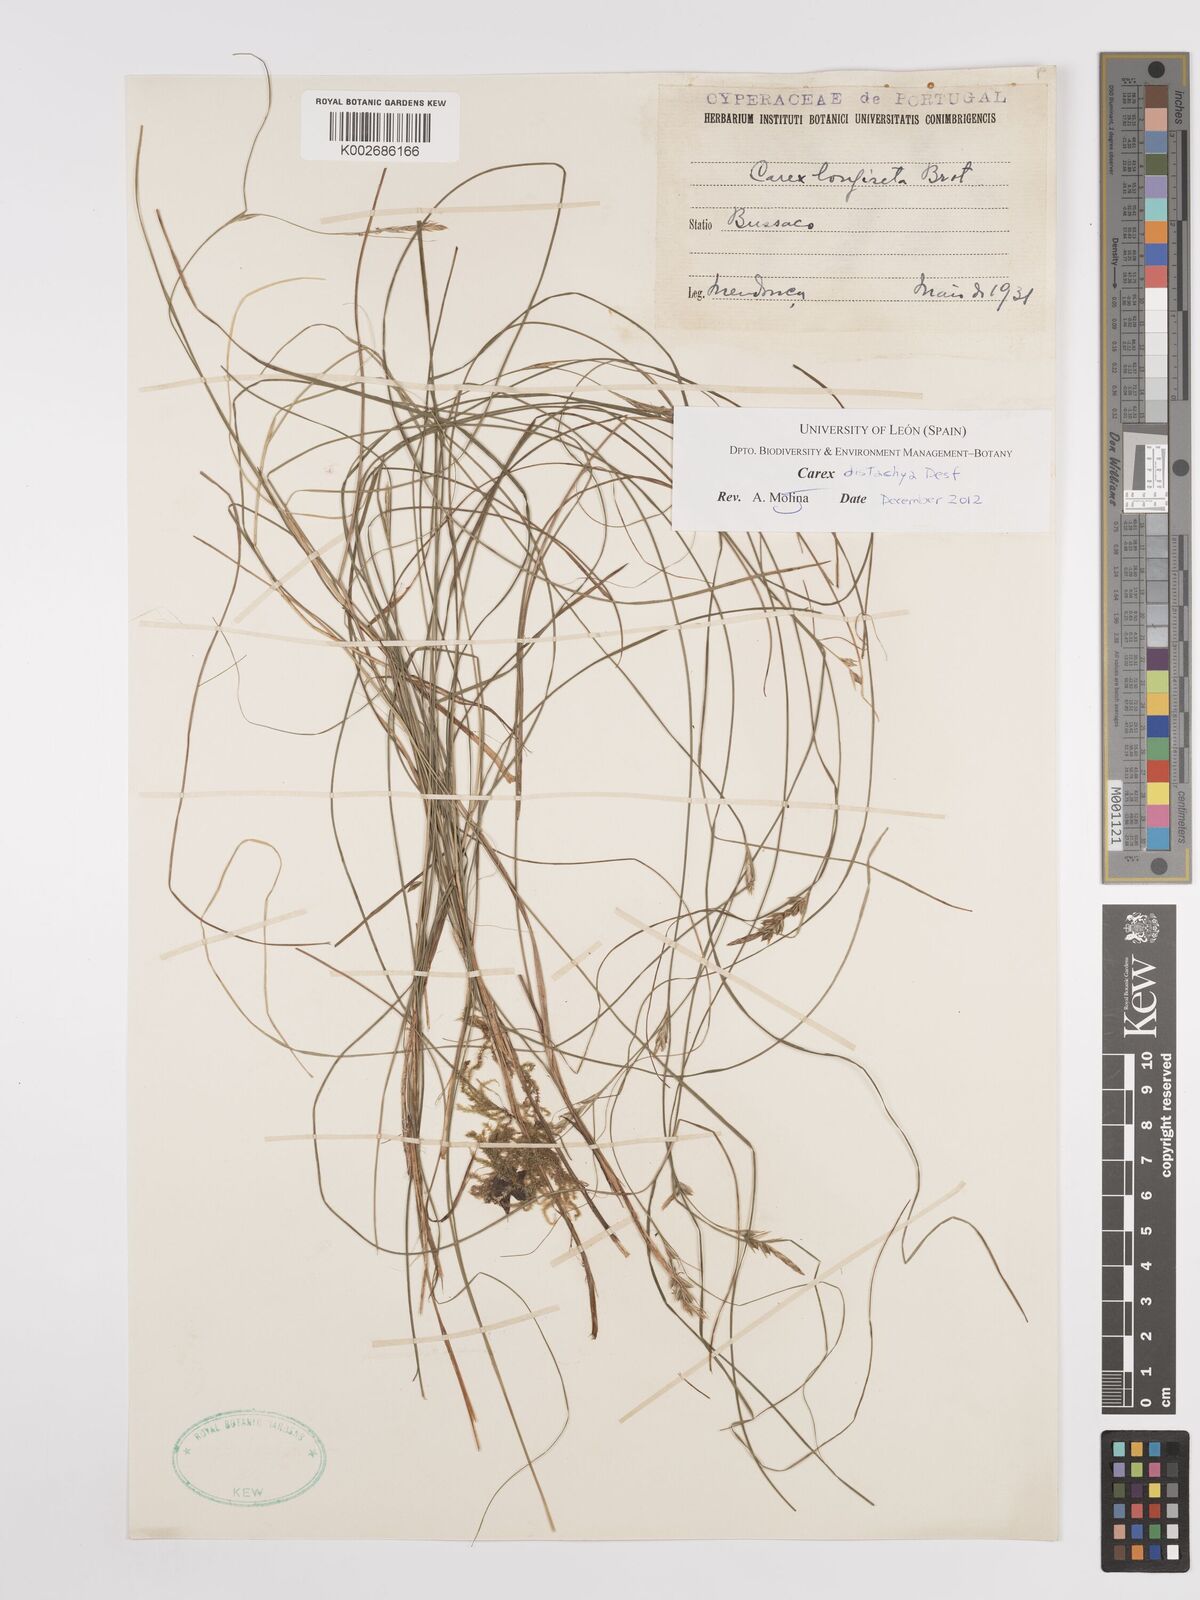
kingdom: Plantae
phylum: Tracheophyta
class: Liliopsida
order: Poales
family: Cyperaceae
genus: Carex
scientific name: Carex distachya
